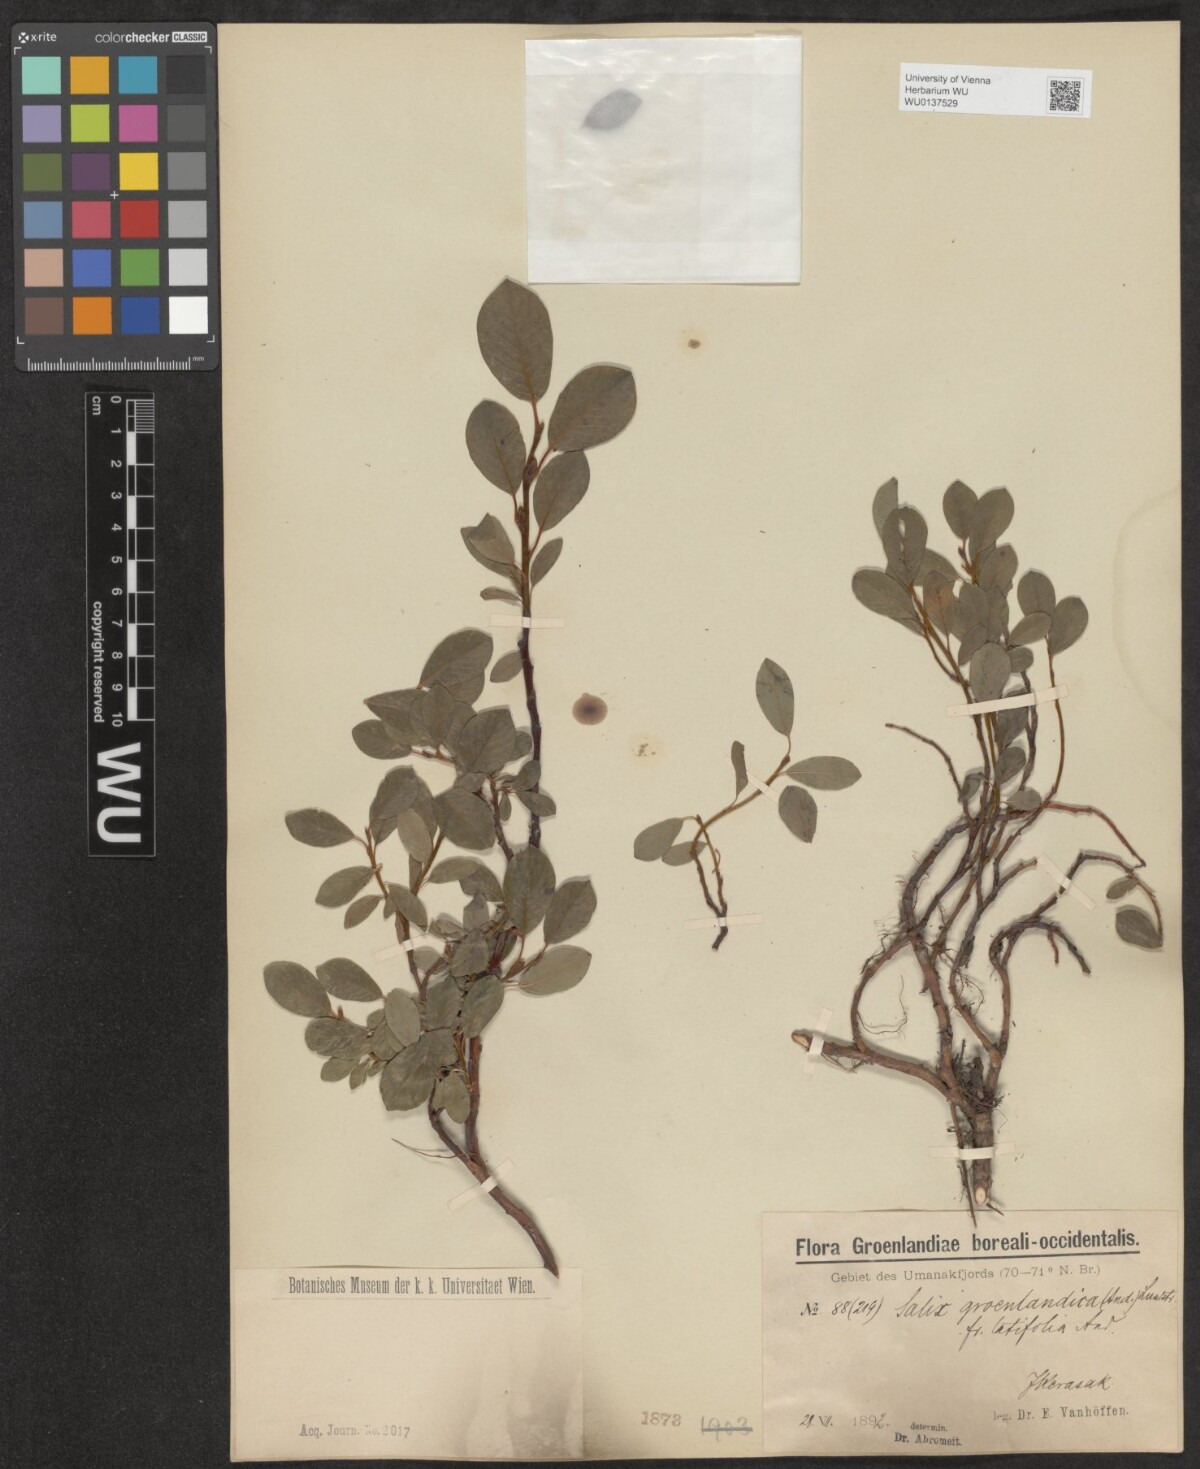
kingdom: Plantae
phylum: Tracheophyta
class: Magnoliopsida
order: Malpighiales
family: Salicaceae
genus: Salix
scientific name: Salix arctophila
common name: Greenland willow
